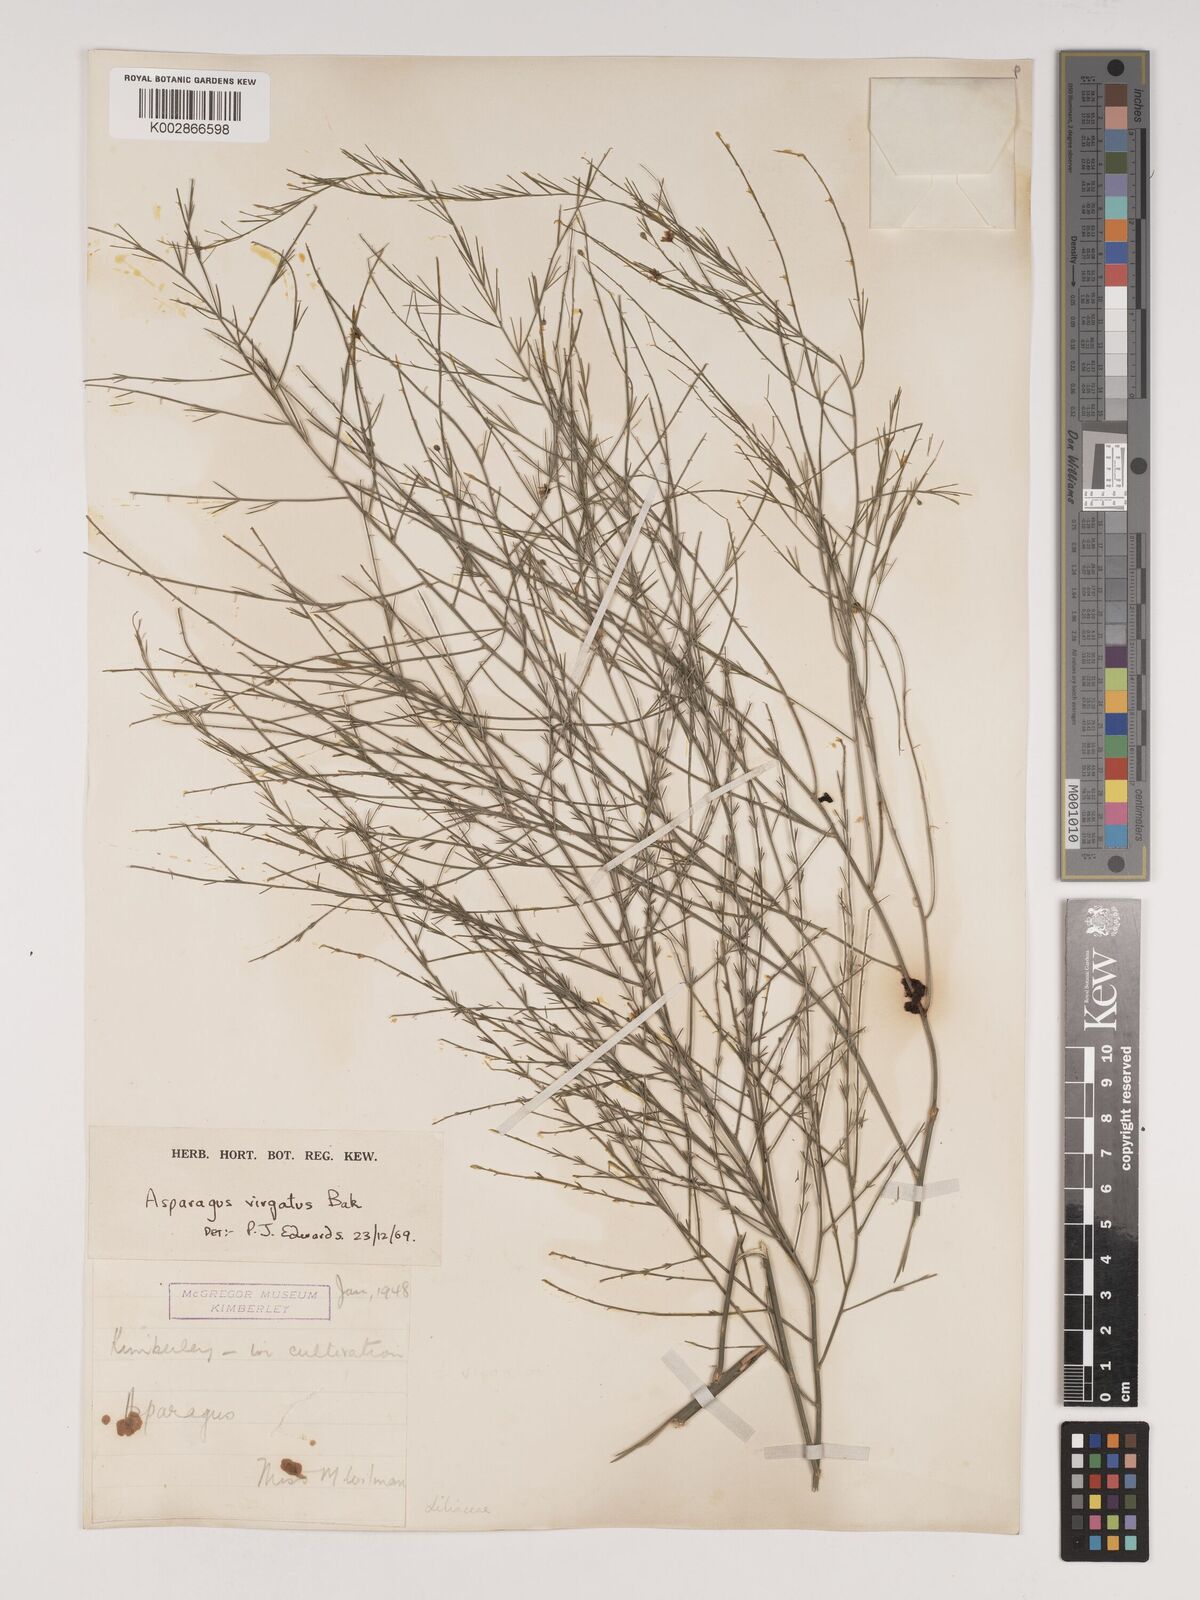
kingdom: Plantae
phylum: Tracheophyta
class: Liliopsida
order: Asparagales
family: Asparagaceae
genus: Asparagus
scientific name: Asparagus virgatus
